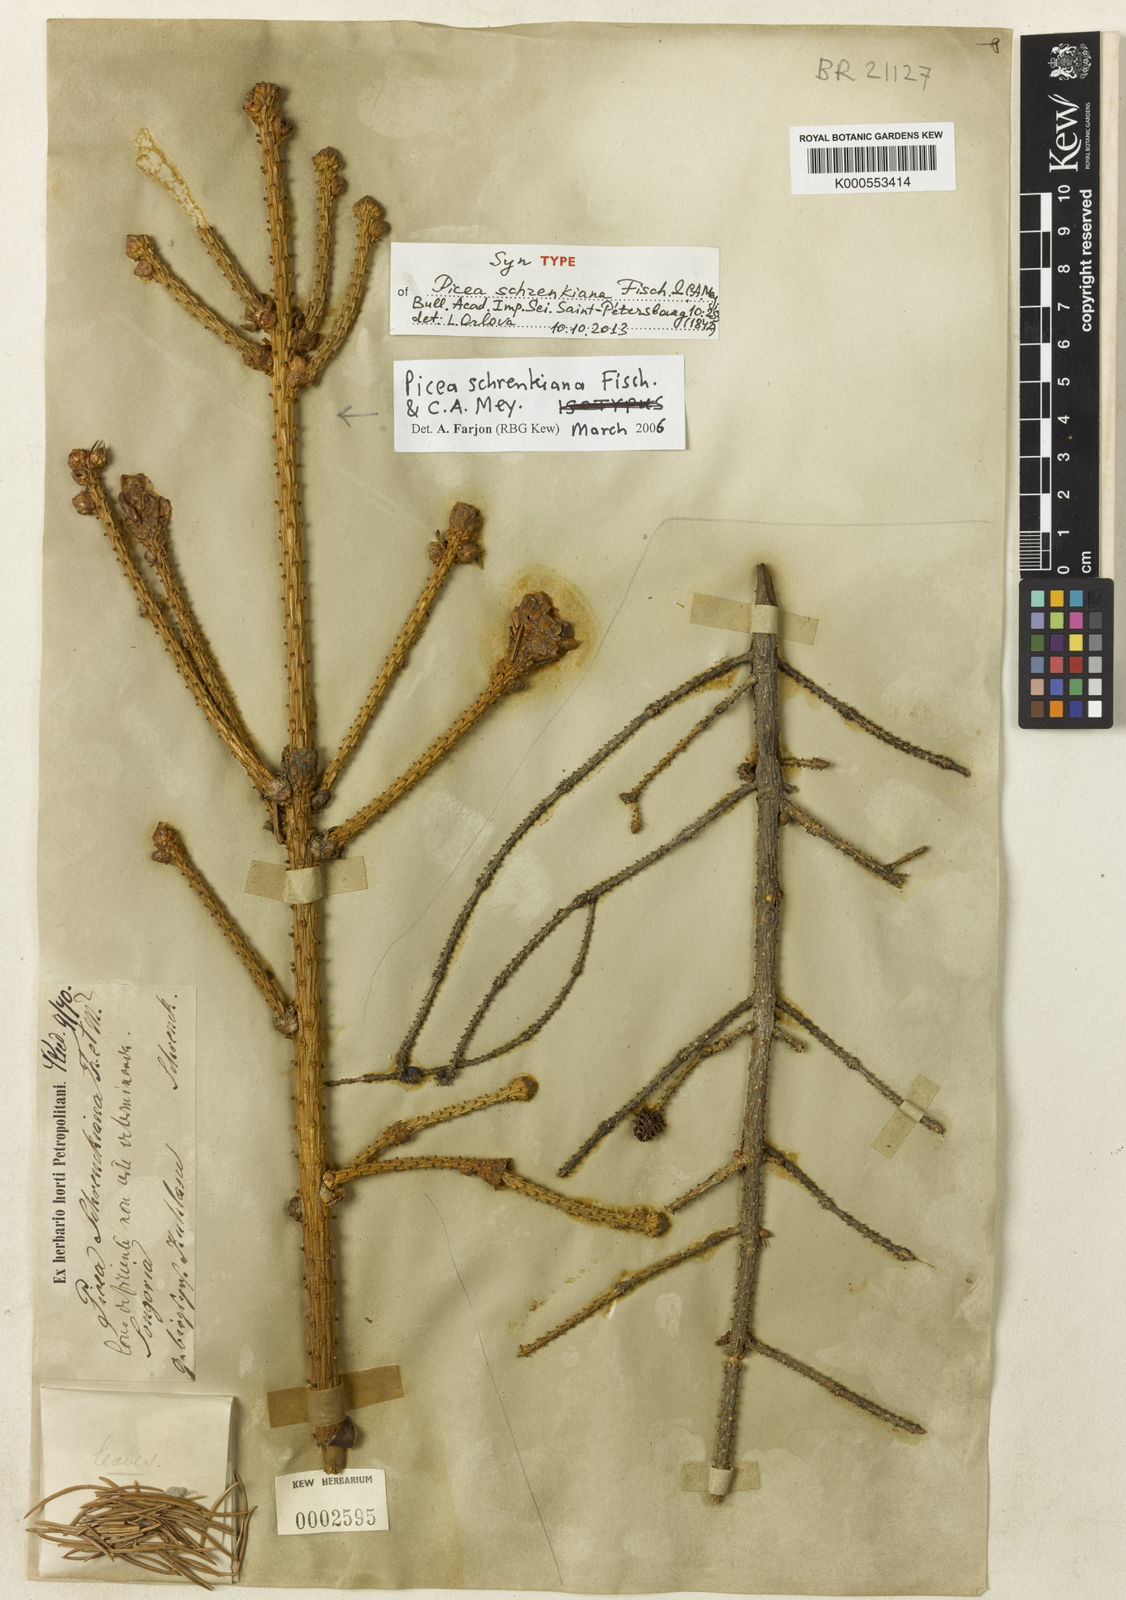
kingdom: Plantae
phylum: Tracheophyta
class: Pinopsida
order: Pinales
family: Pinaceae
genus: Picea
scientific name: Picea schrenkiana
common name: Asian spruce
